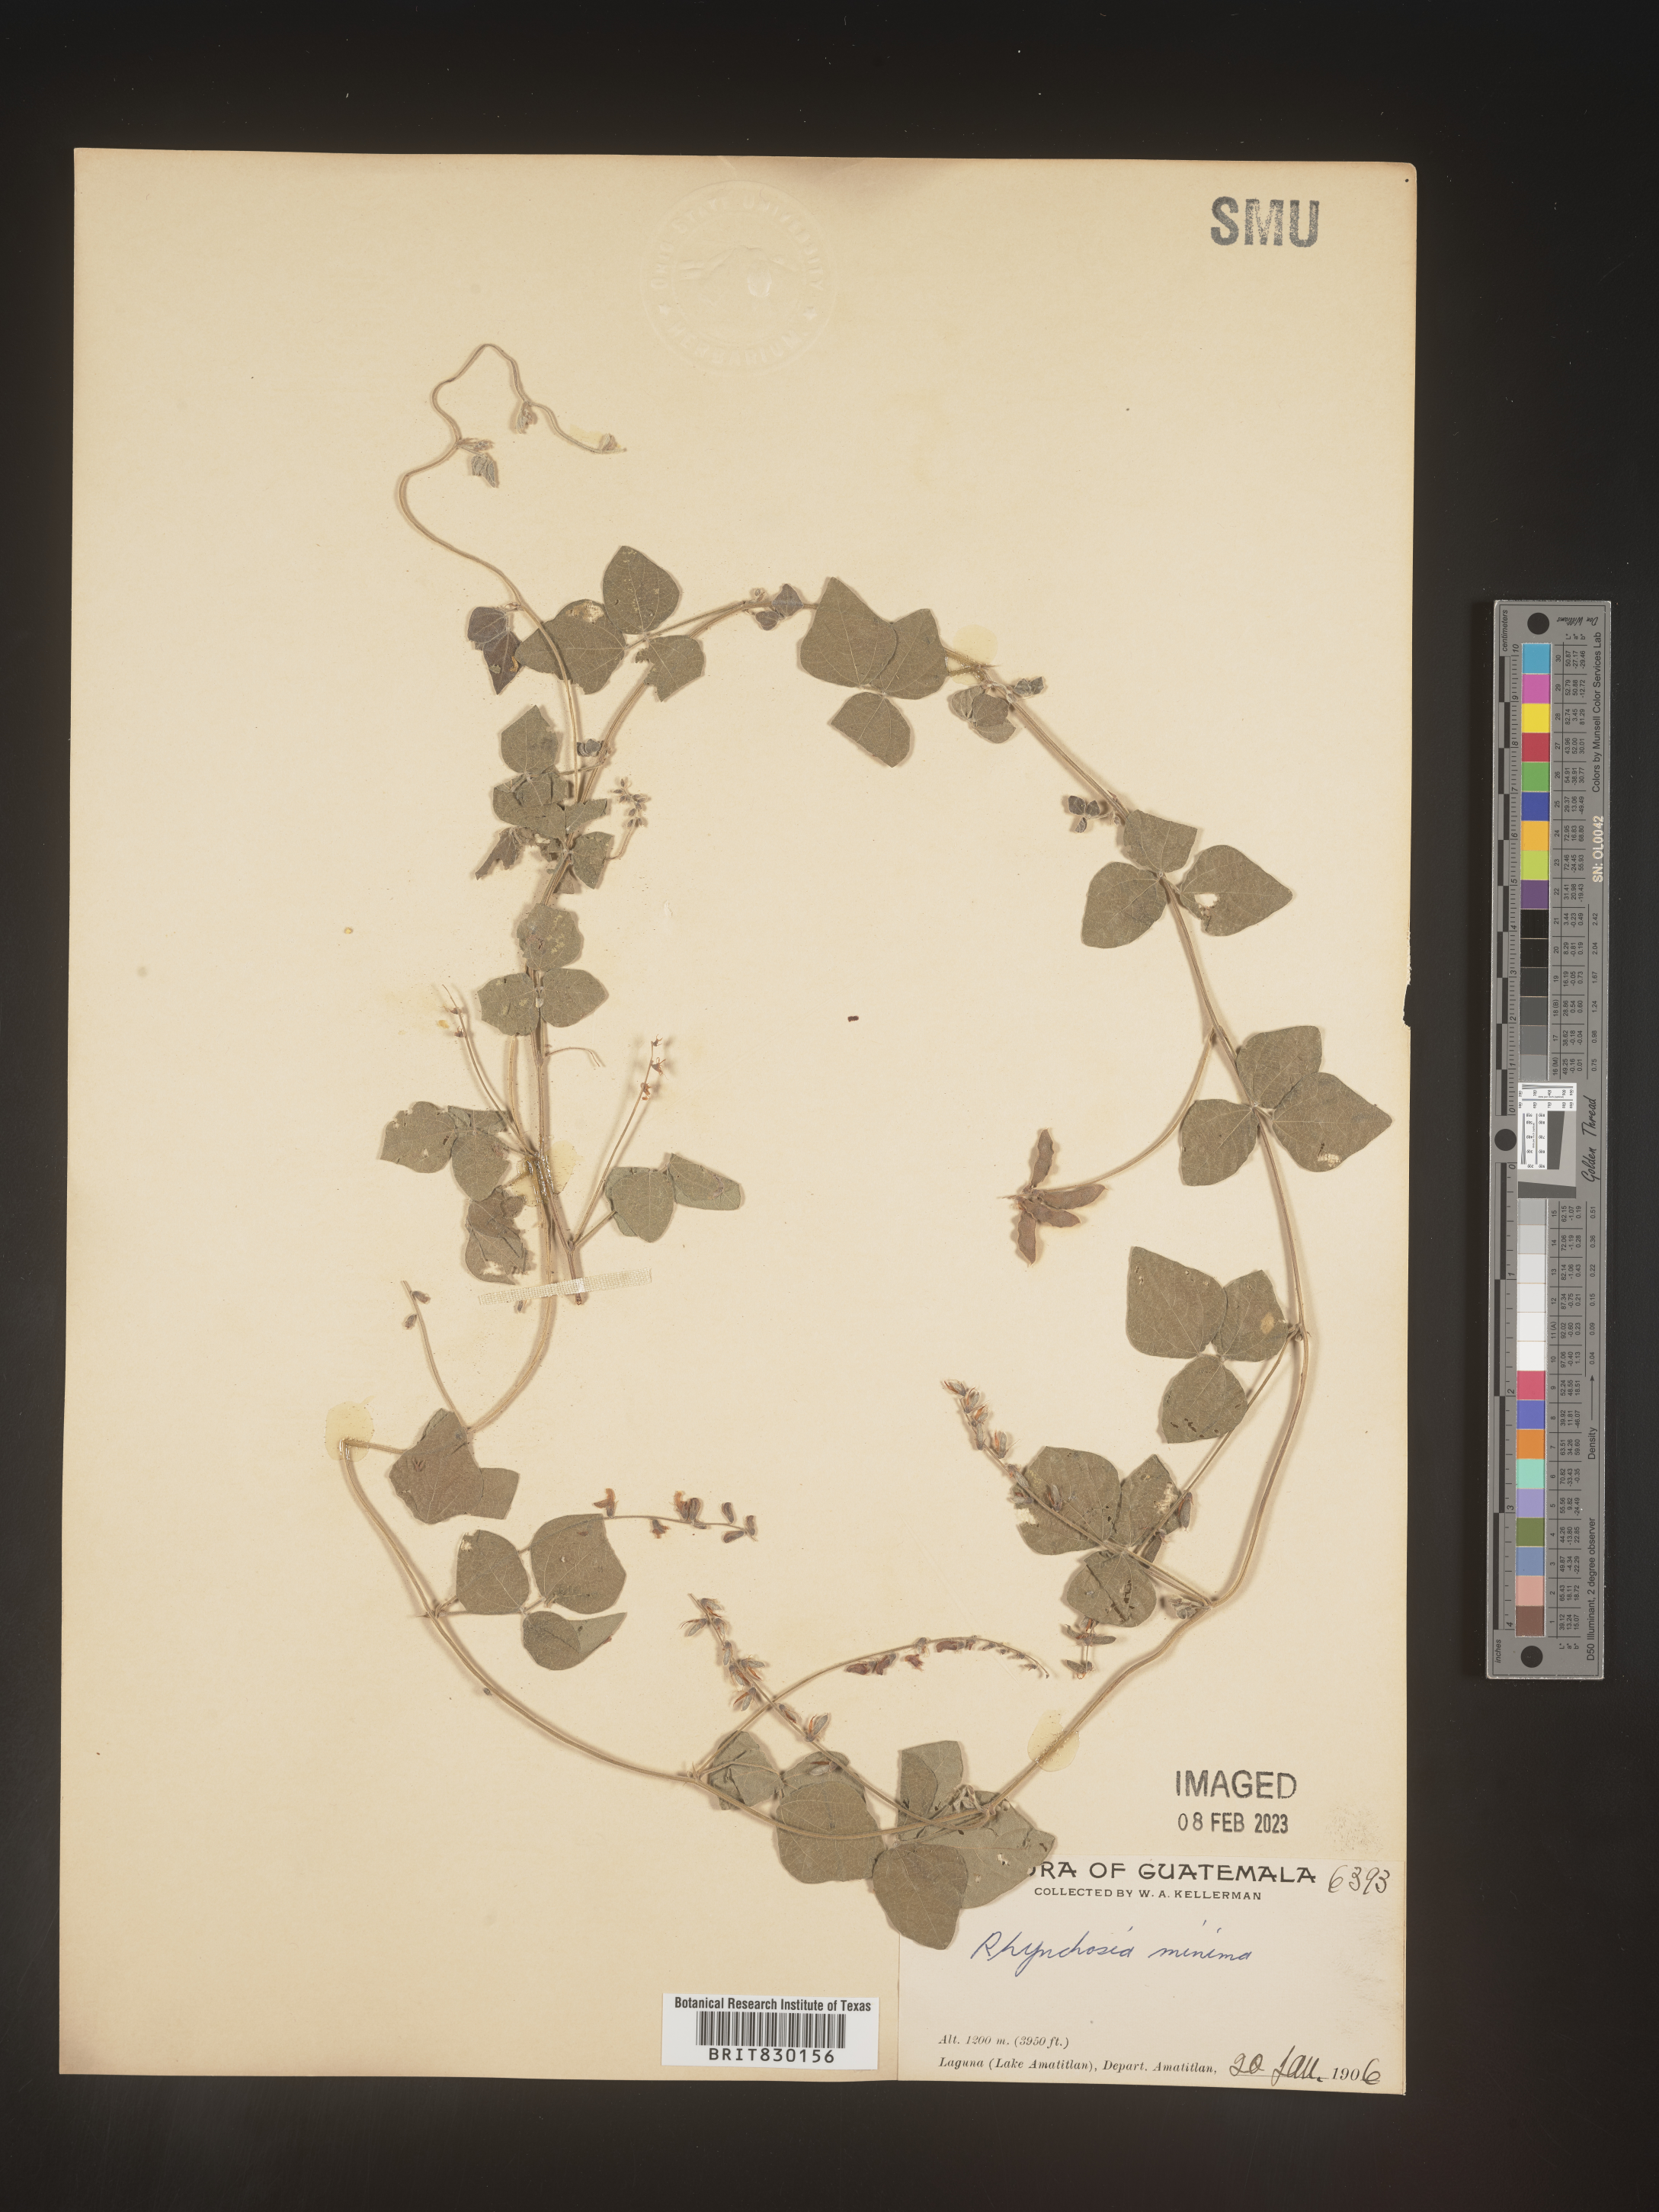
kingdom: Plantae
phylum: Tracheophyta
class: Magnoliopsida
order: Fabales
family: Fabaceae
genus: Rhynchosia
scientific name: Rhynchosia
